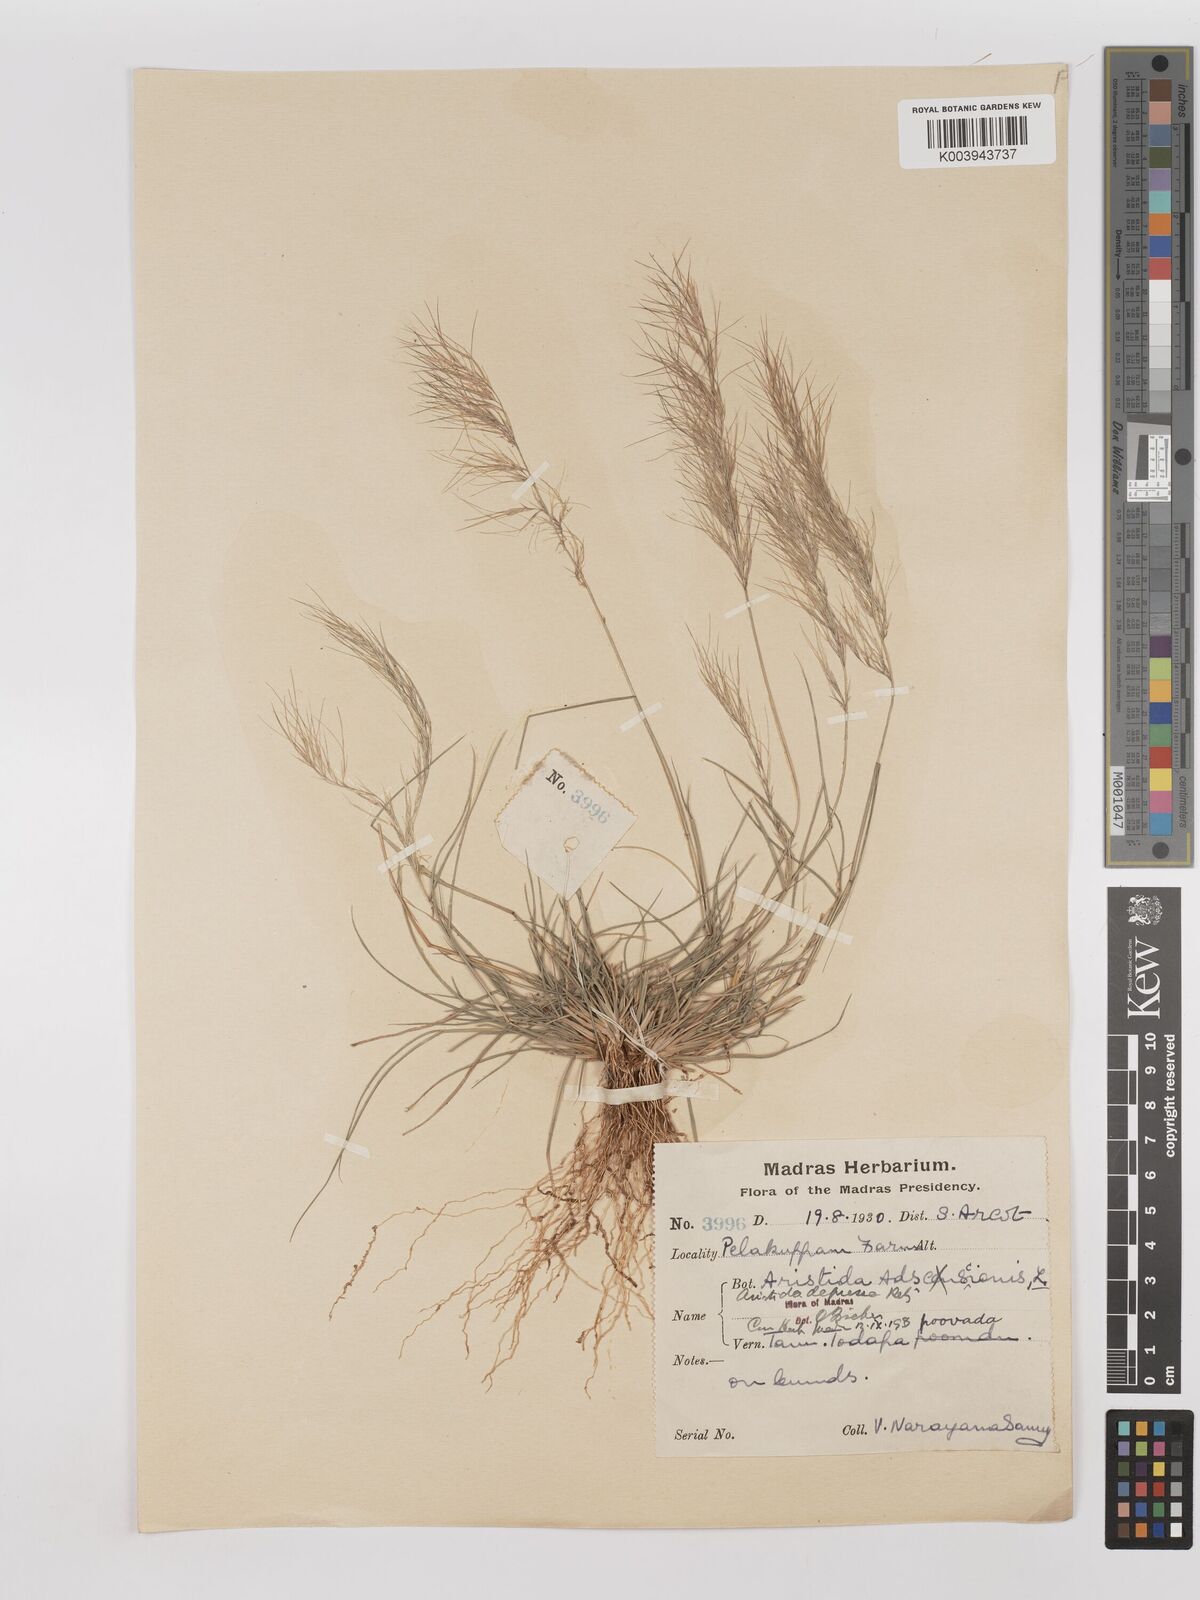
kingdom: Plantae
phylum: Tracheophyta
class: Liliopsida
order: Poales
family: Poaceae
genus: Aristida
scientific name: Aristida adscensionis
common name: Sixweeks threeawn
